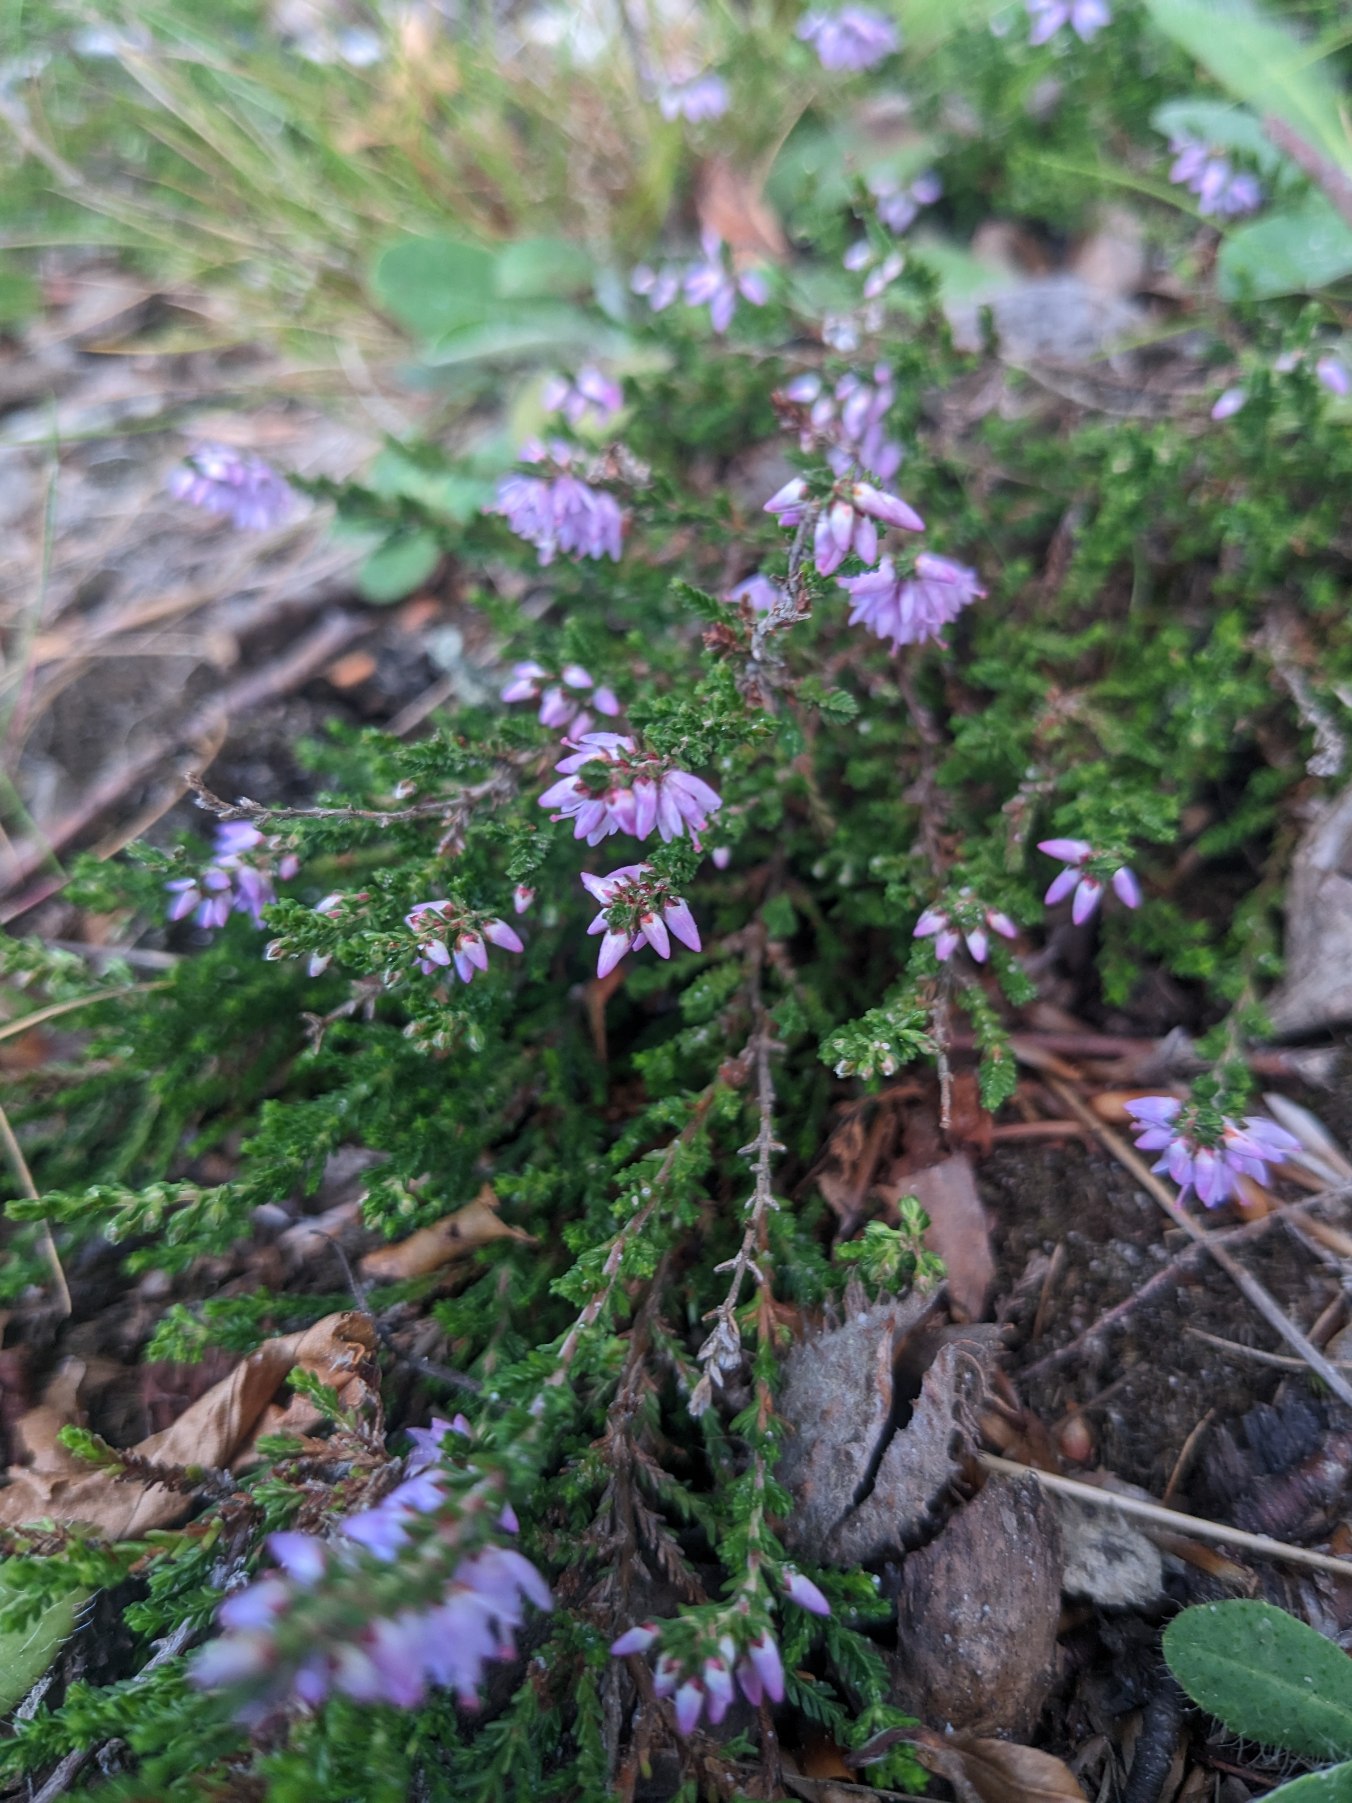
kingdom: Plantae
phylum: Tracheophyta
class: Magnoliopsida
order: Ericales
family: Ericaceae
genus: Calluna
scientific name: Calluna vulgaris
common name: Hedelyng
